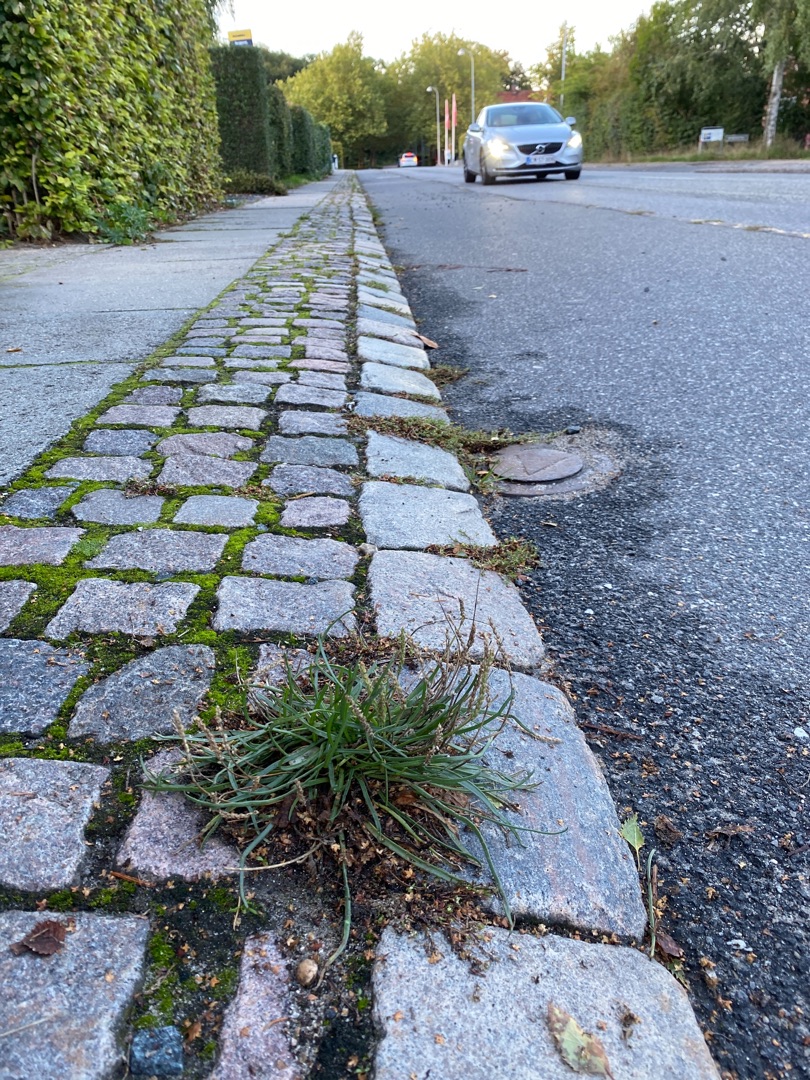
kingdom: Plantae
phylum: Tracheophyta
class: Magnoliopsida
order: Lamiales
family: Plantaginaceae
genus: Plantago
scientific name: Plantago maritima
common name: Strand-vejbred
